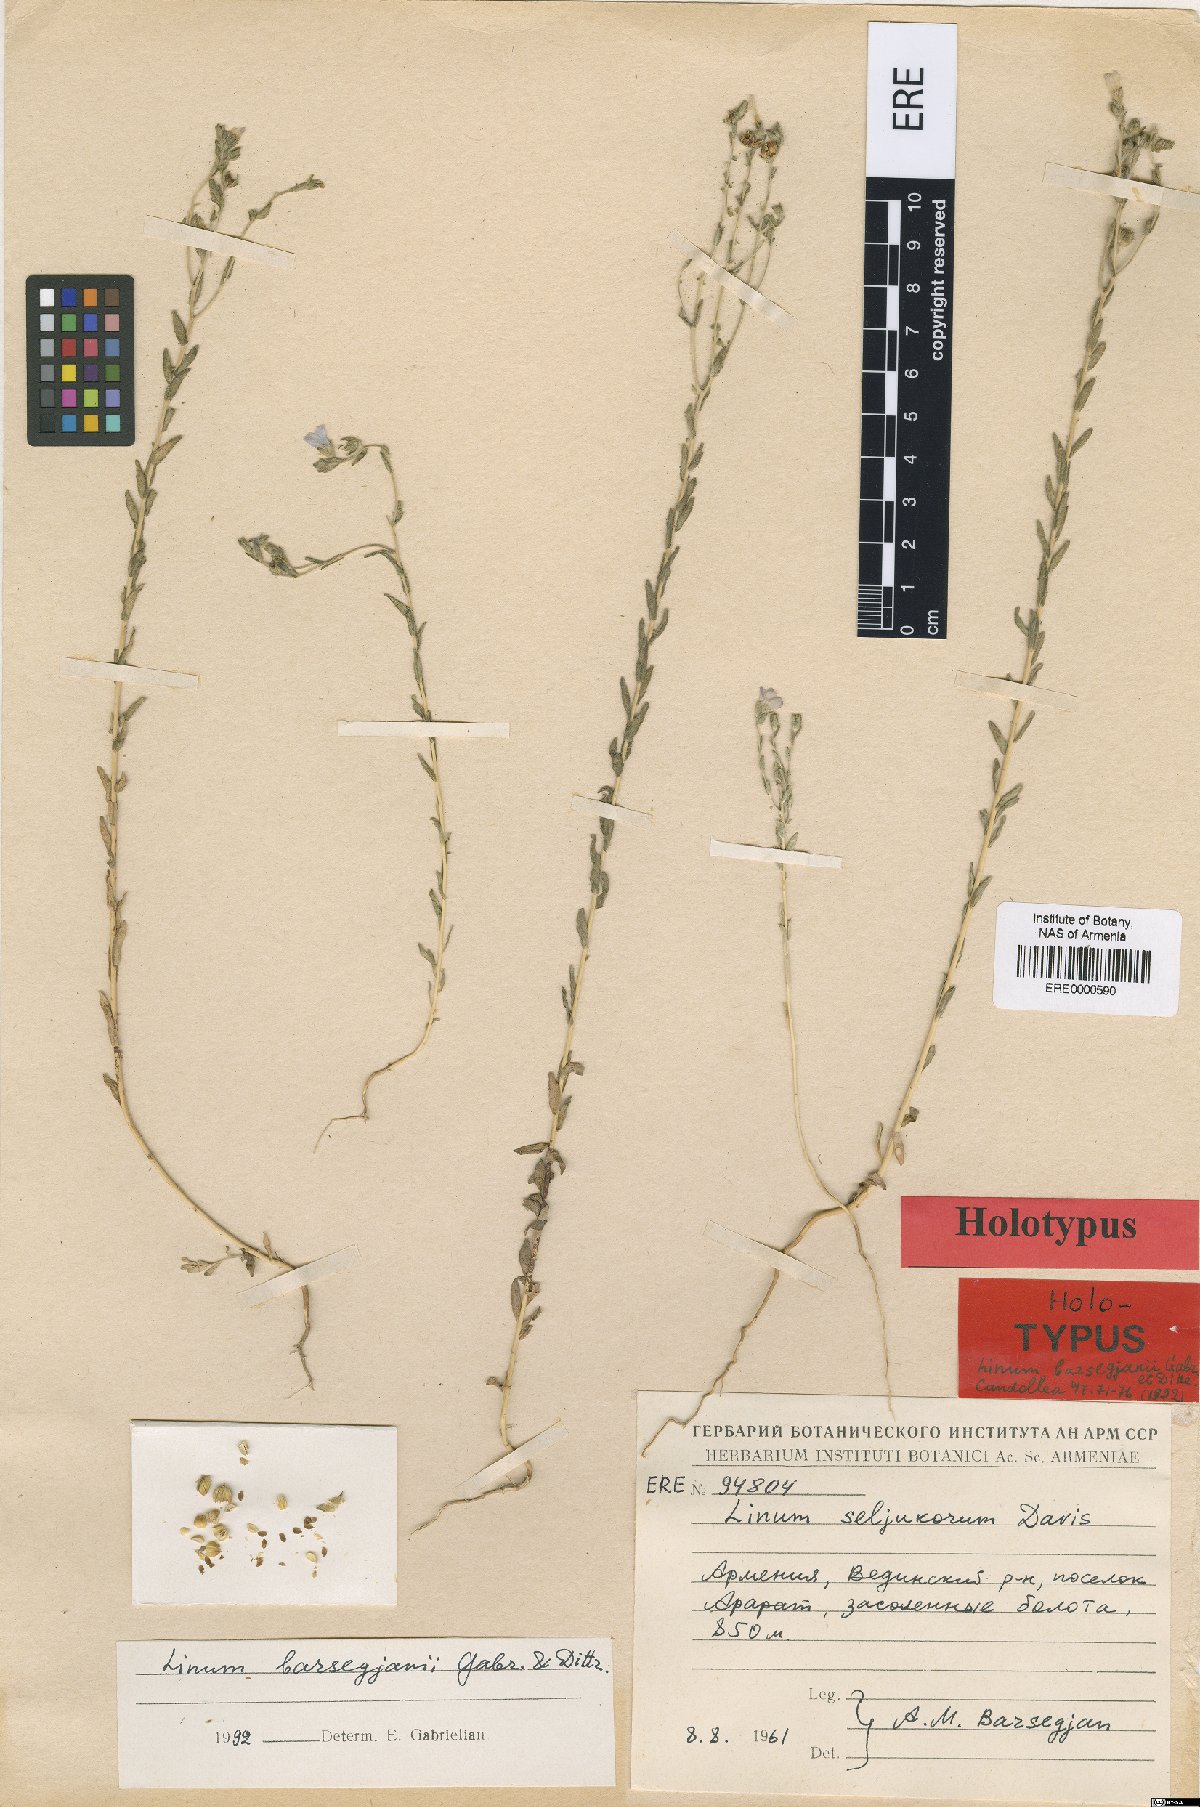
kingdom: Plantae
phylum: Tracheophyta
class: Magnoliopsida
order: Malpighiales
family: Linaceae
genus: Linum
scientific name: Linum seljukorum
